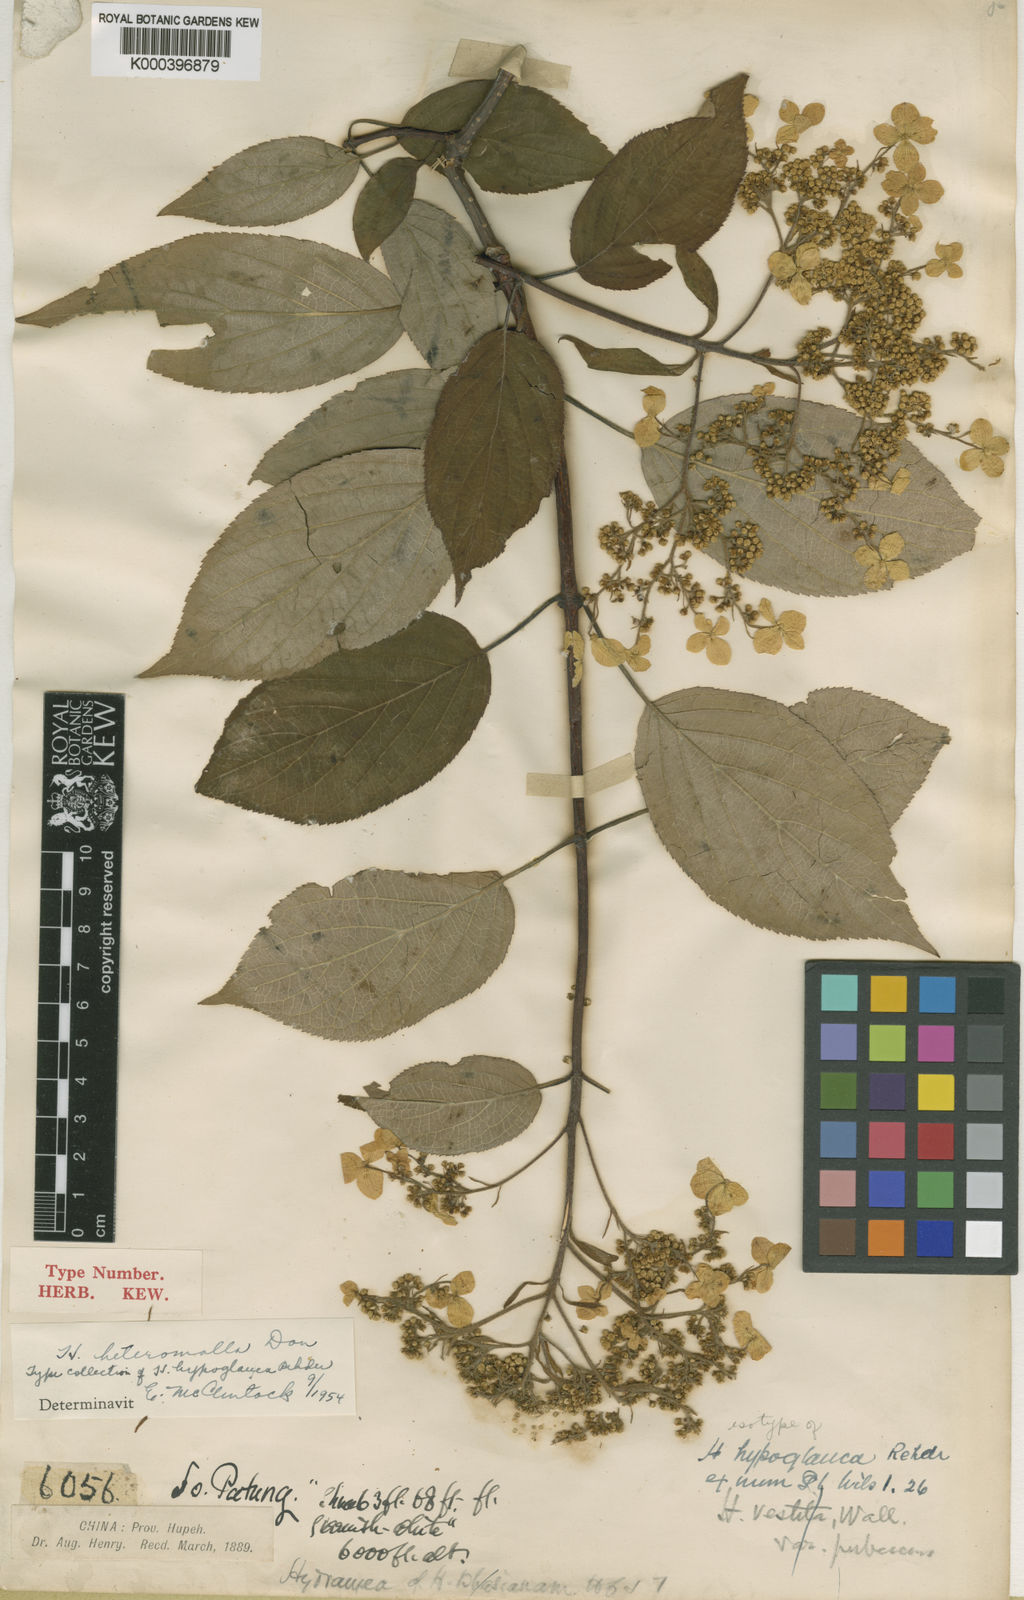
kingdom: Plantae
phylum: Tracheophyta
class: Magnoliopsida
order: Cornales
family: Hydrangeaceae
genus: Hydrangea
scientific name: Hydrangea heteromalla
